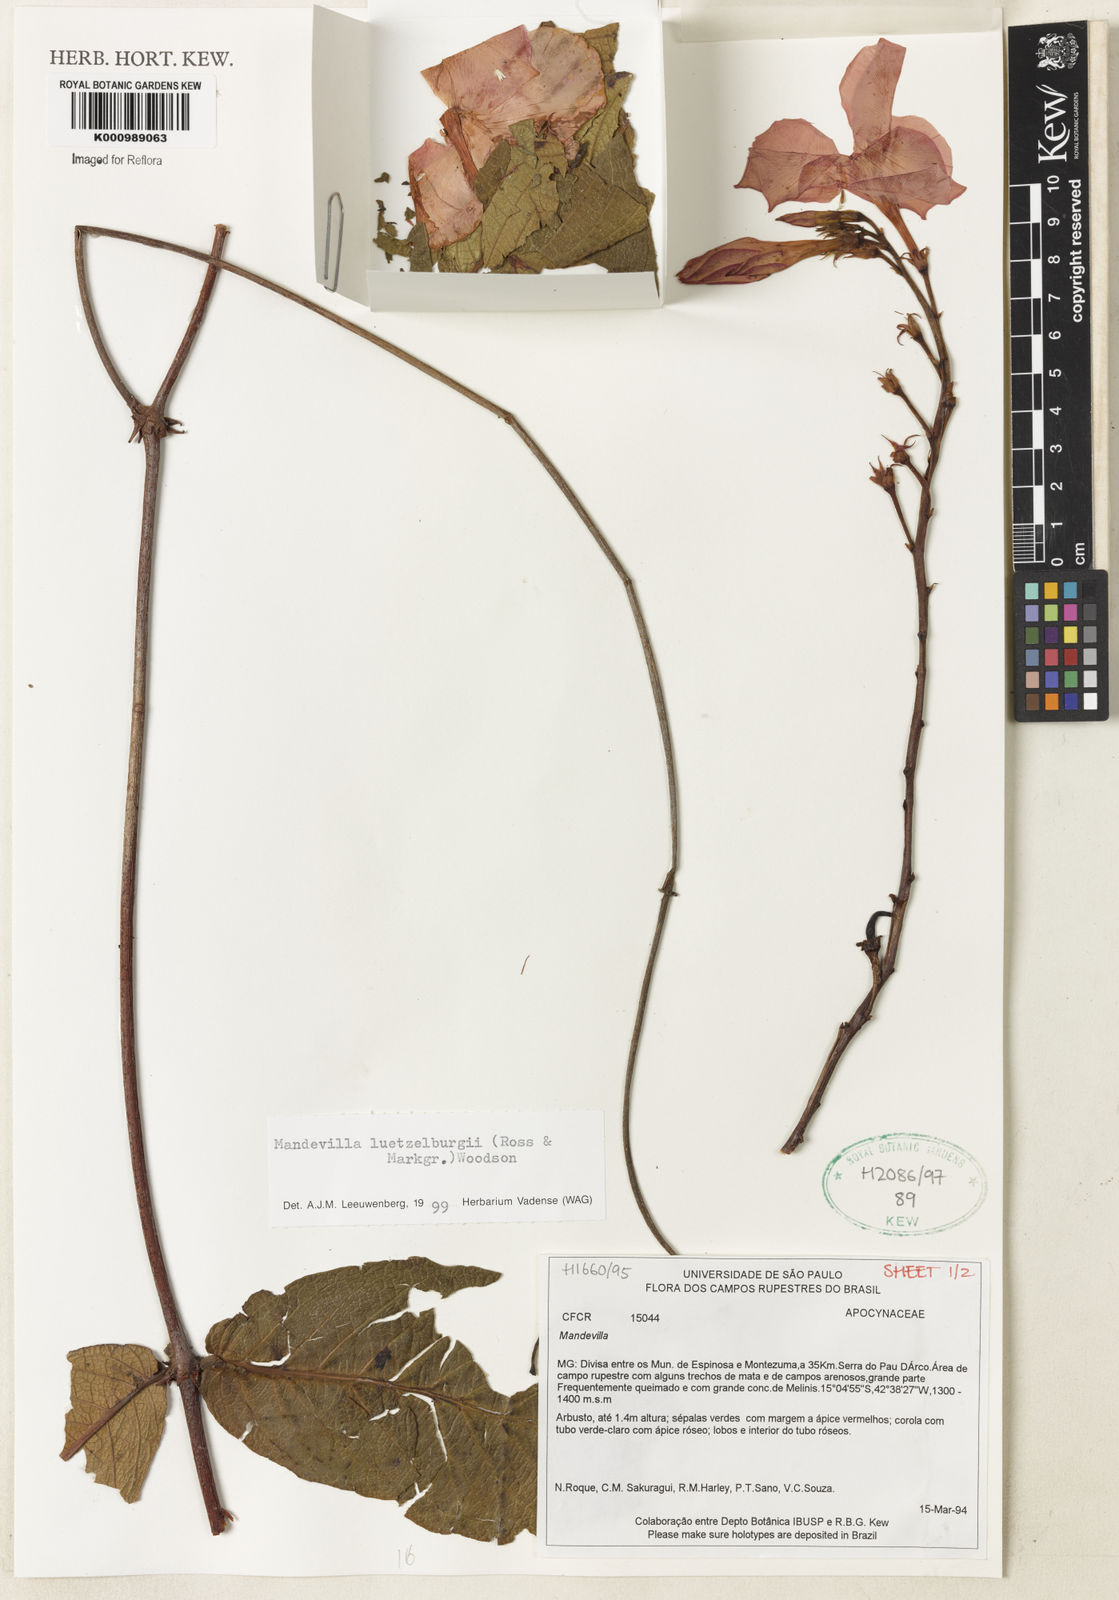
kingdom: Plantae
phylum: Tracheophyta
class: Magnoliopsida
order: Gentianales
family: Apocynaceae
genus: Mandevilla
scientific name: Mandevilla luetzelburgii
